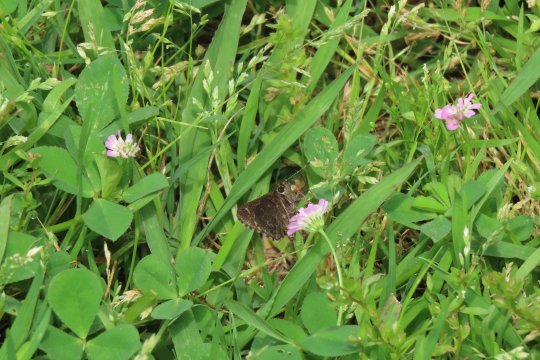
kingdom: Animalia
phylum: Arthropoda
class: Insecta
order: Lepidoptera
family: Hesperiidae
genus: Mastor
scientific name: Mastor vialis
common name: Common Roadside-Skipper
